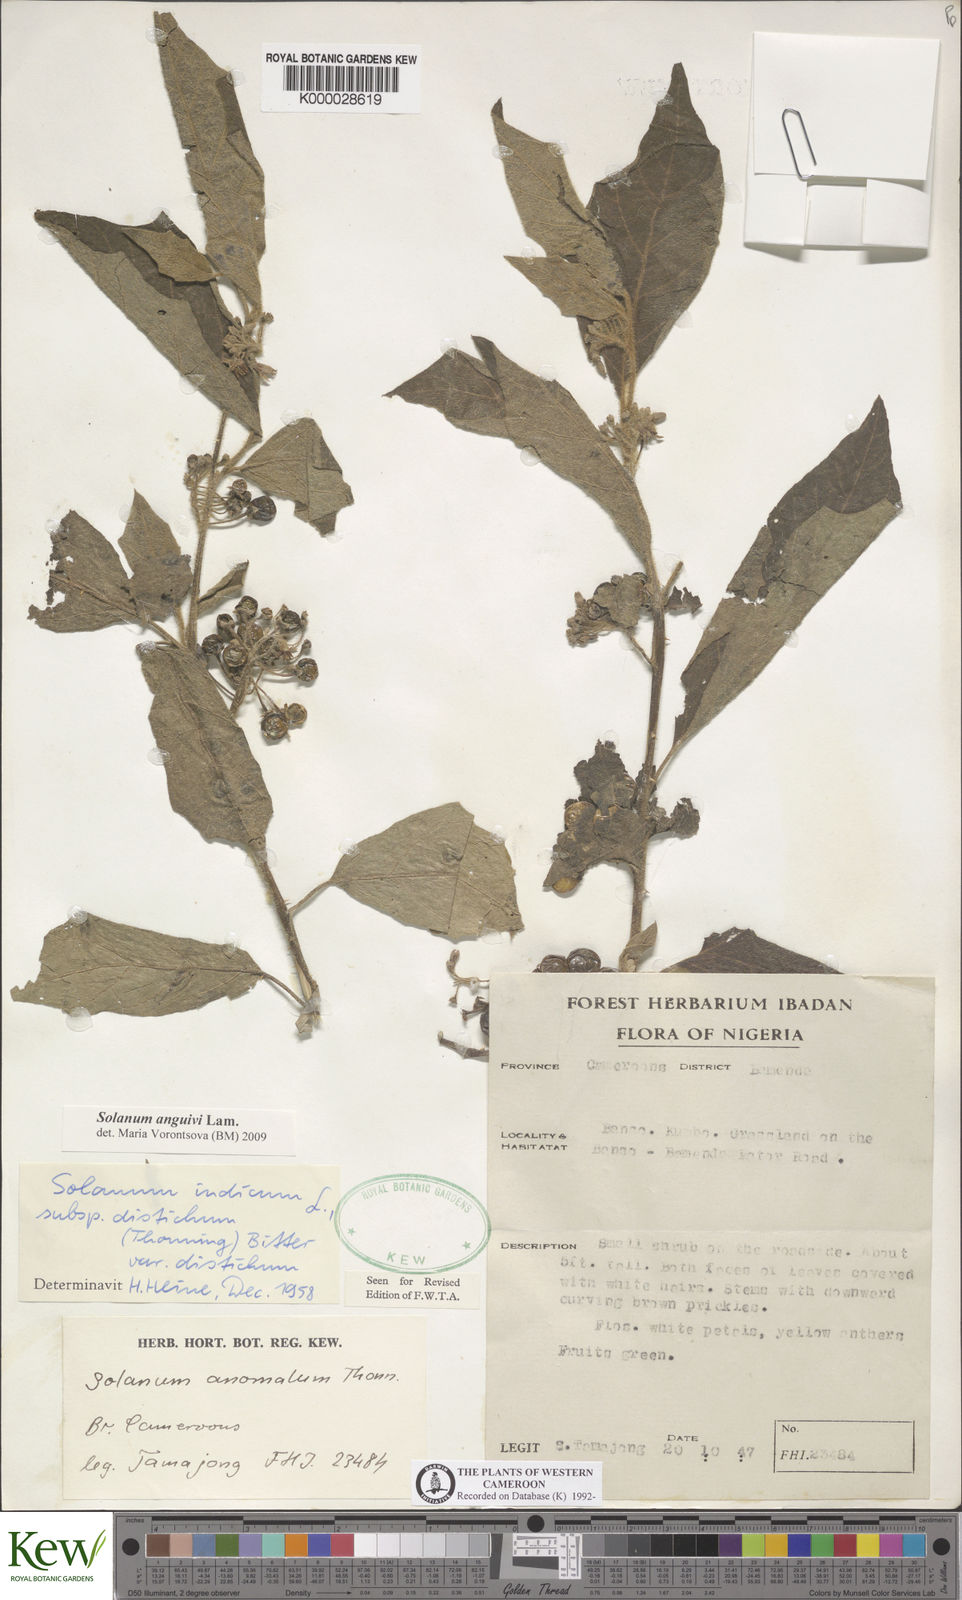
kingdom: Plantae
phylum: Tracheophyta
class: Magnoliopsida
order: Solanales
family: Solanaceae
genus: Solanum
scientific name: Solanum anguivi
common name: Forest bitterberry
